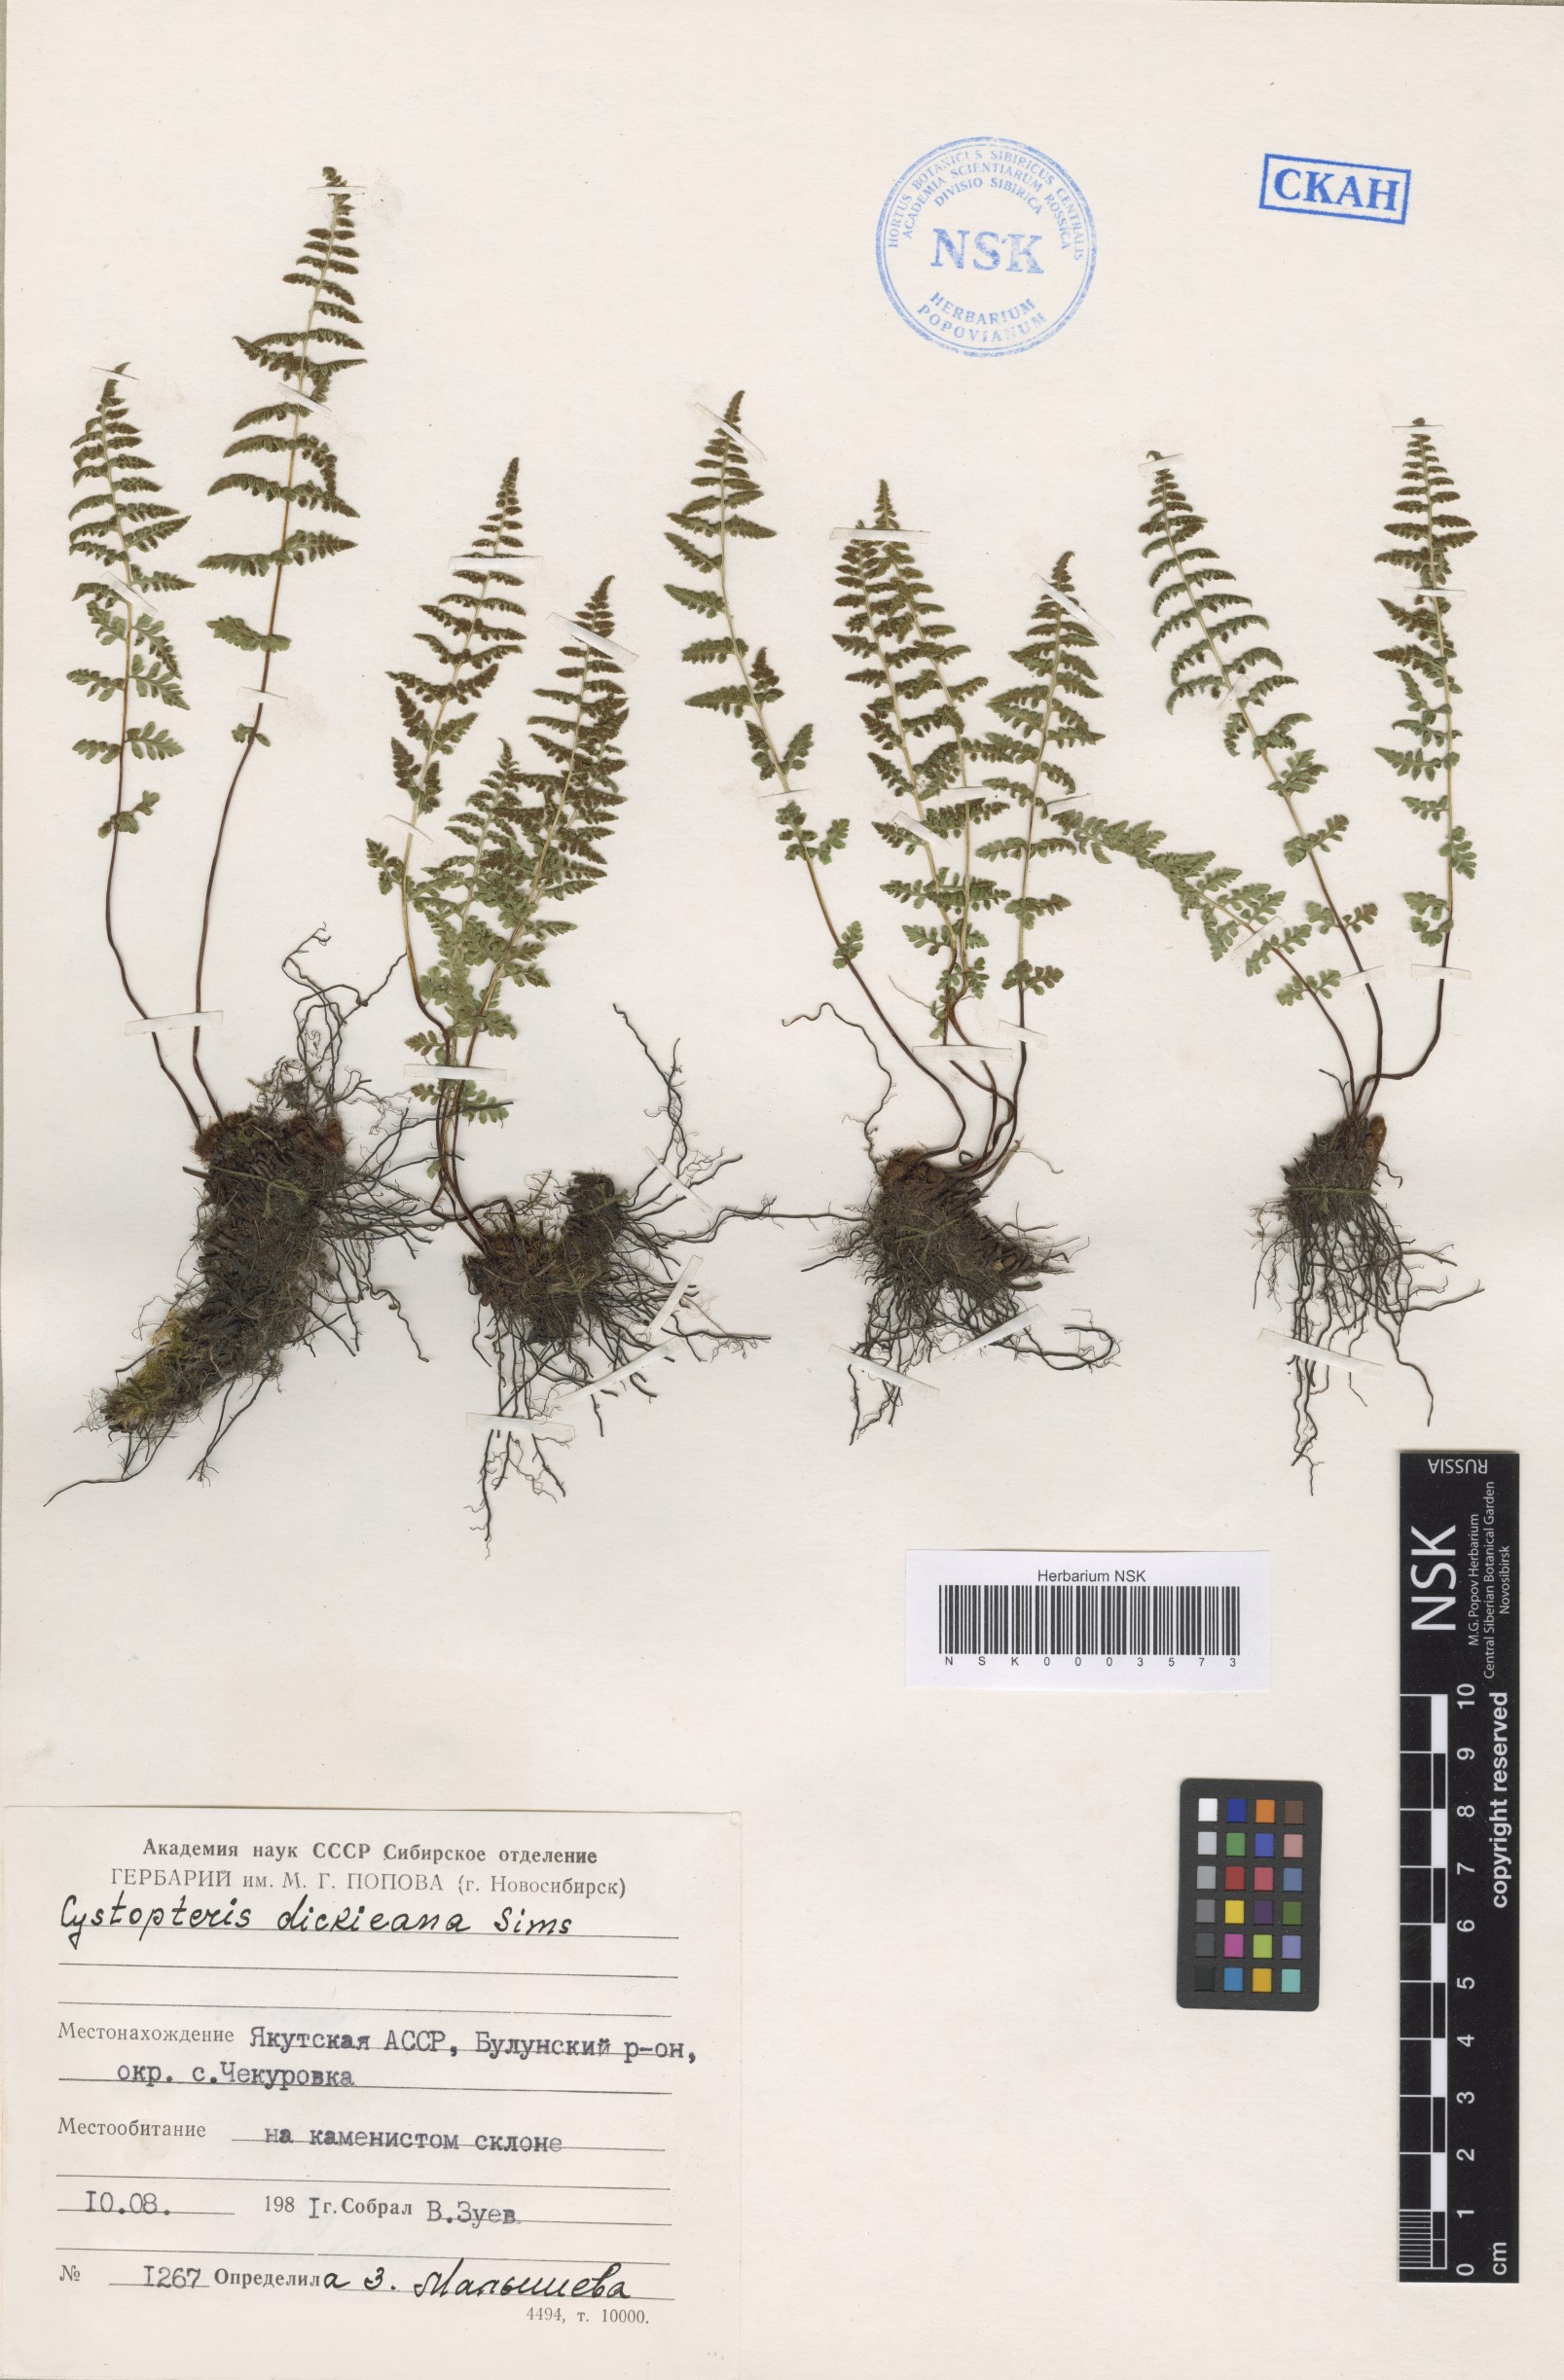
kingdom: Plantae
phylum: Tracheophyta
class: Polypodiopsida
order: Polypodiales
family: Cystopteridaceae
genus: Cystopteris
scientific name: Cystopteris dickieana
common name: Dickie's bladder-fern
